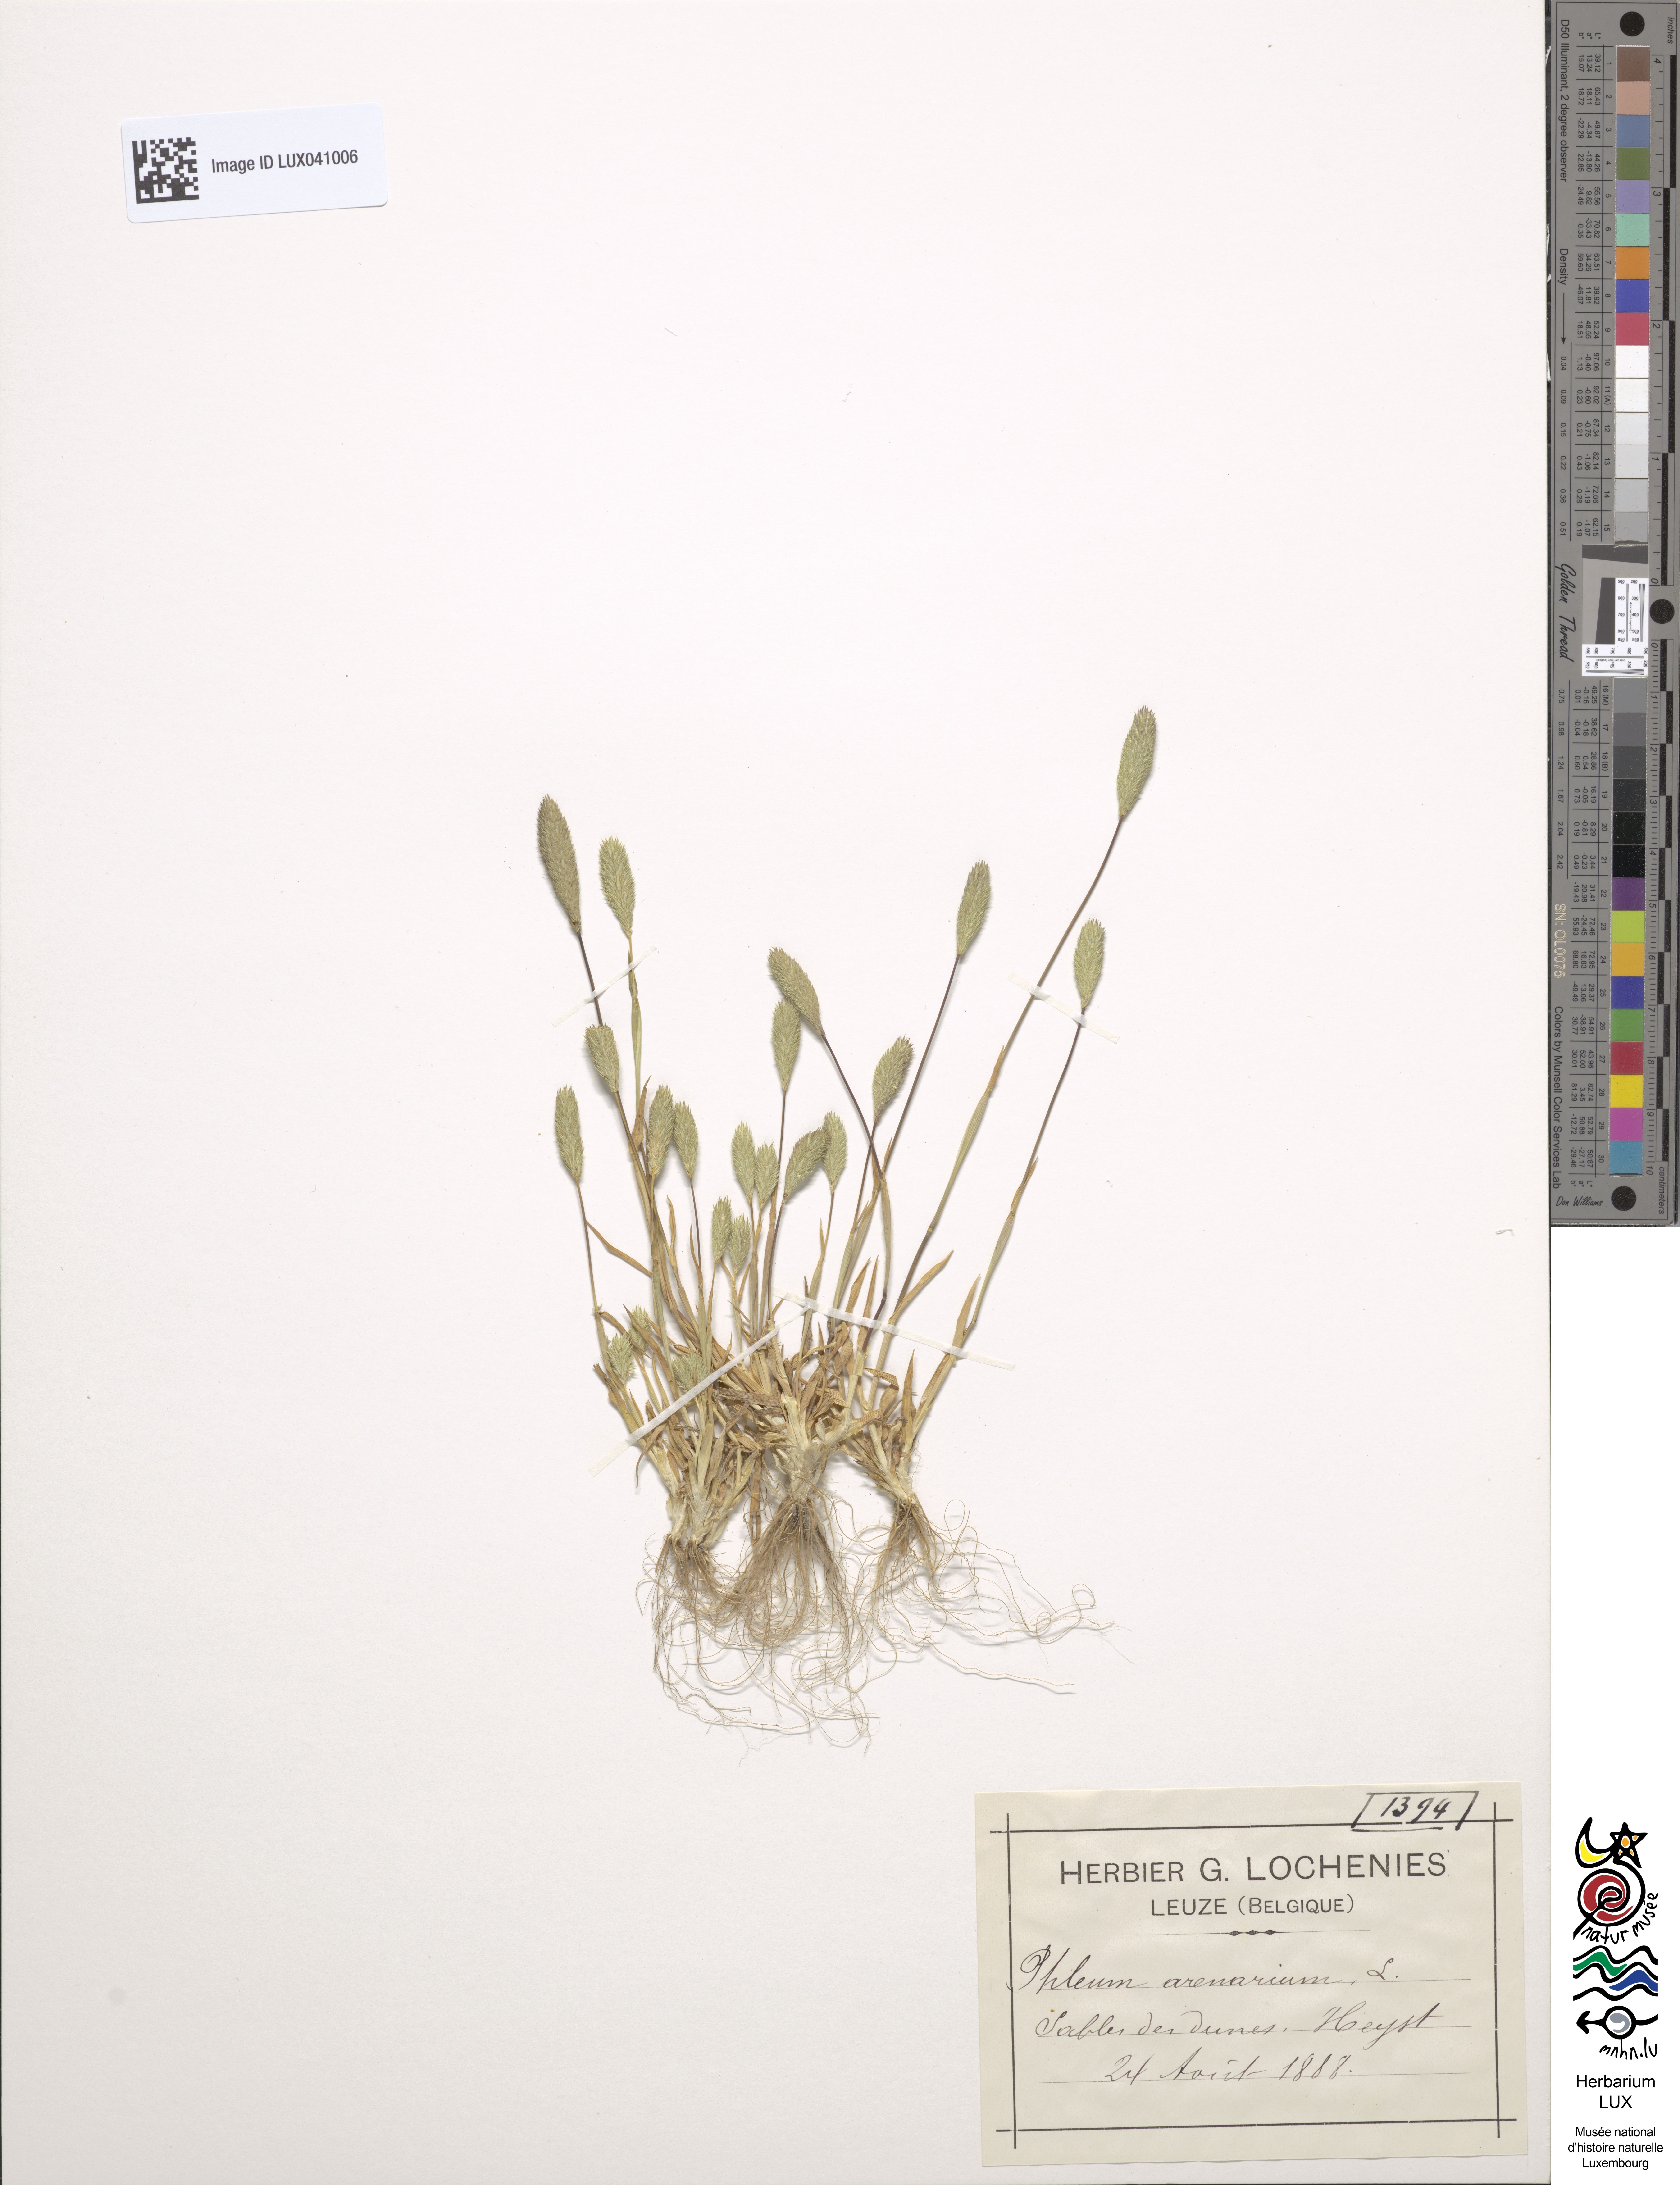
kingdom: Plantae
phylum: Tracheophyta
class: Liliopsida
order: Poales
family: Poaceae
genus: Phleum
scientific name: Phleum arenarium
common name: Sand cat's-tail
